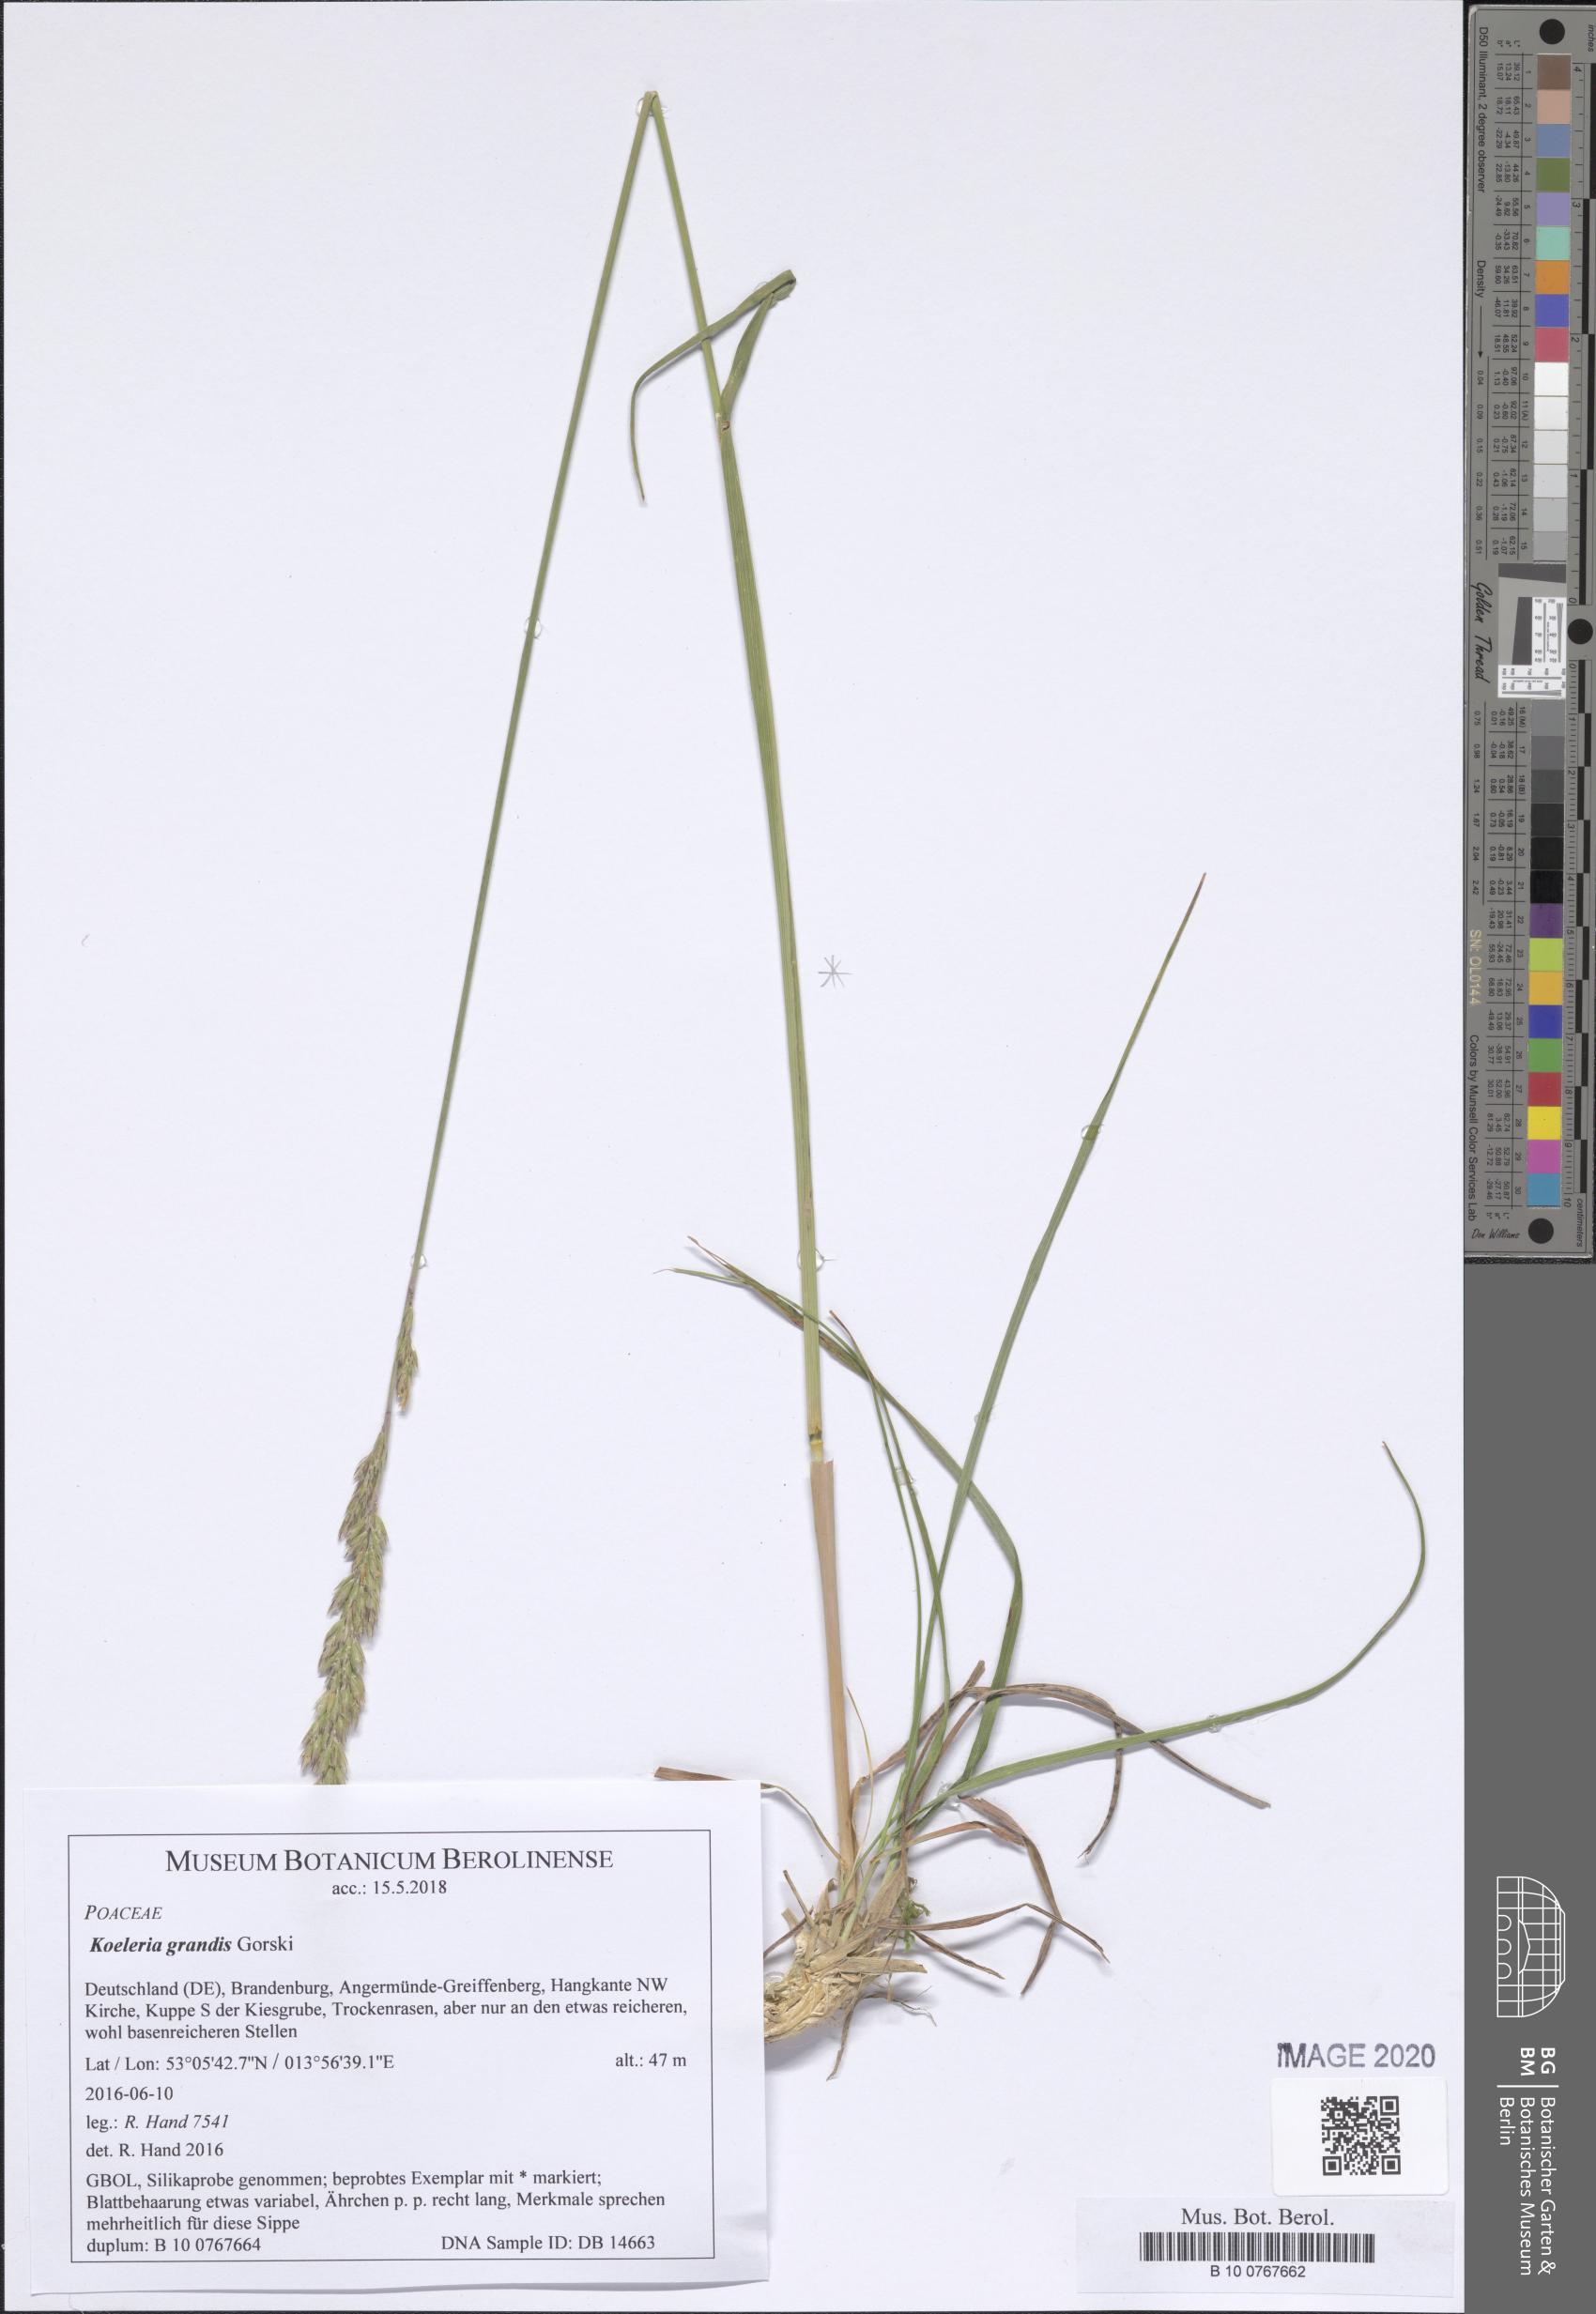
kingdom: Plantae
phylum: Tracheophyta
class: Liliopsida
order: Poales
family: Poaceae
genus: Koeleria
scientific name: Koeleria pyramidata
